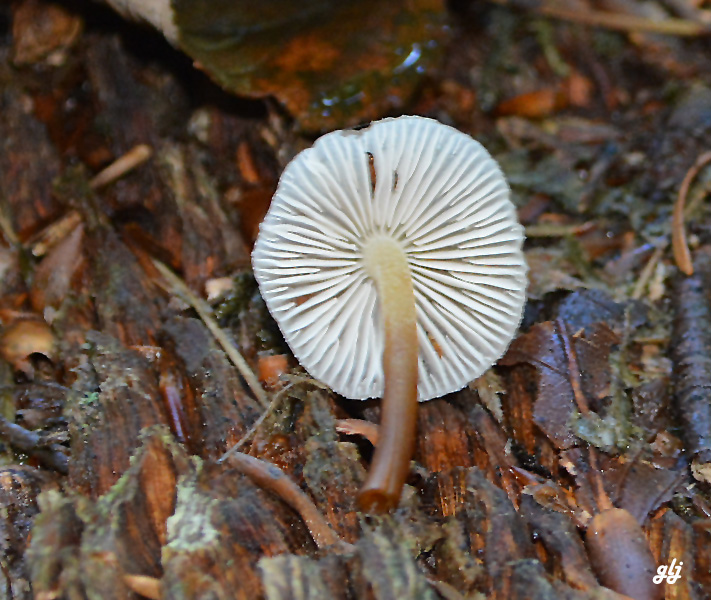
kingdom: Fungi
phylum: Basidiomycota
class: Agaricomycetes
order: Agaricales
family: Mycenaceae
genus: Mycena
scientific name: Mycena inclinata
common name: nikkende huesvamp
